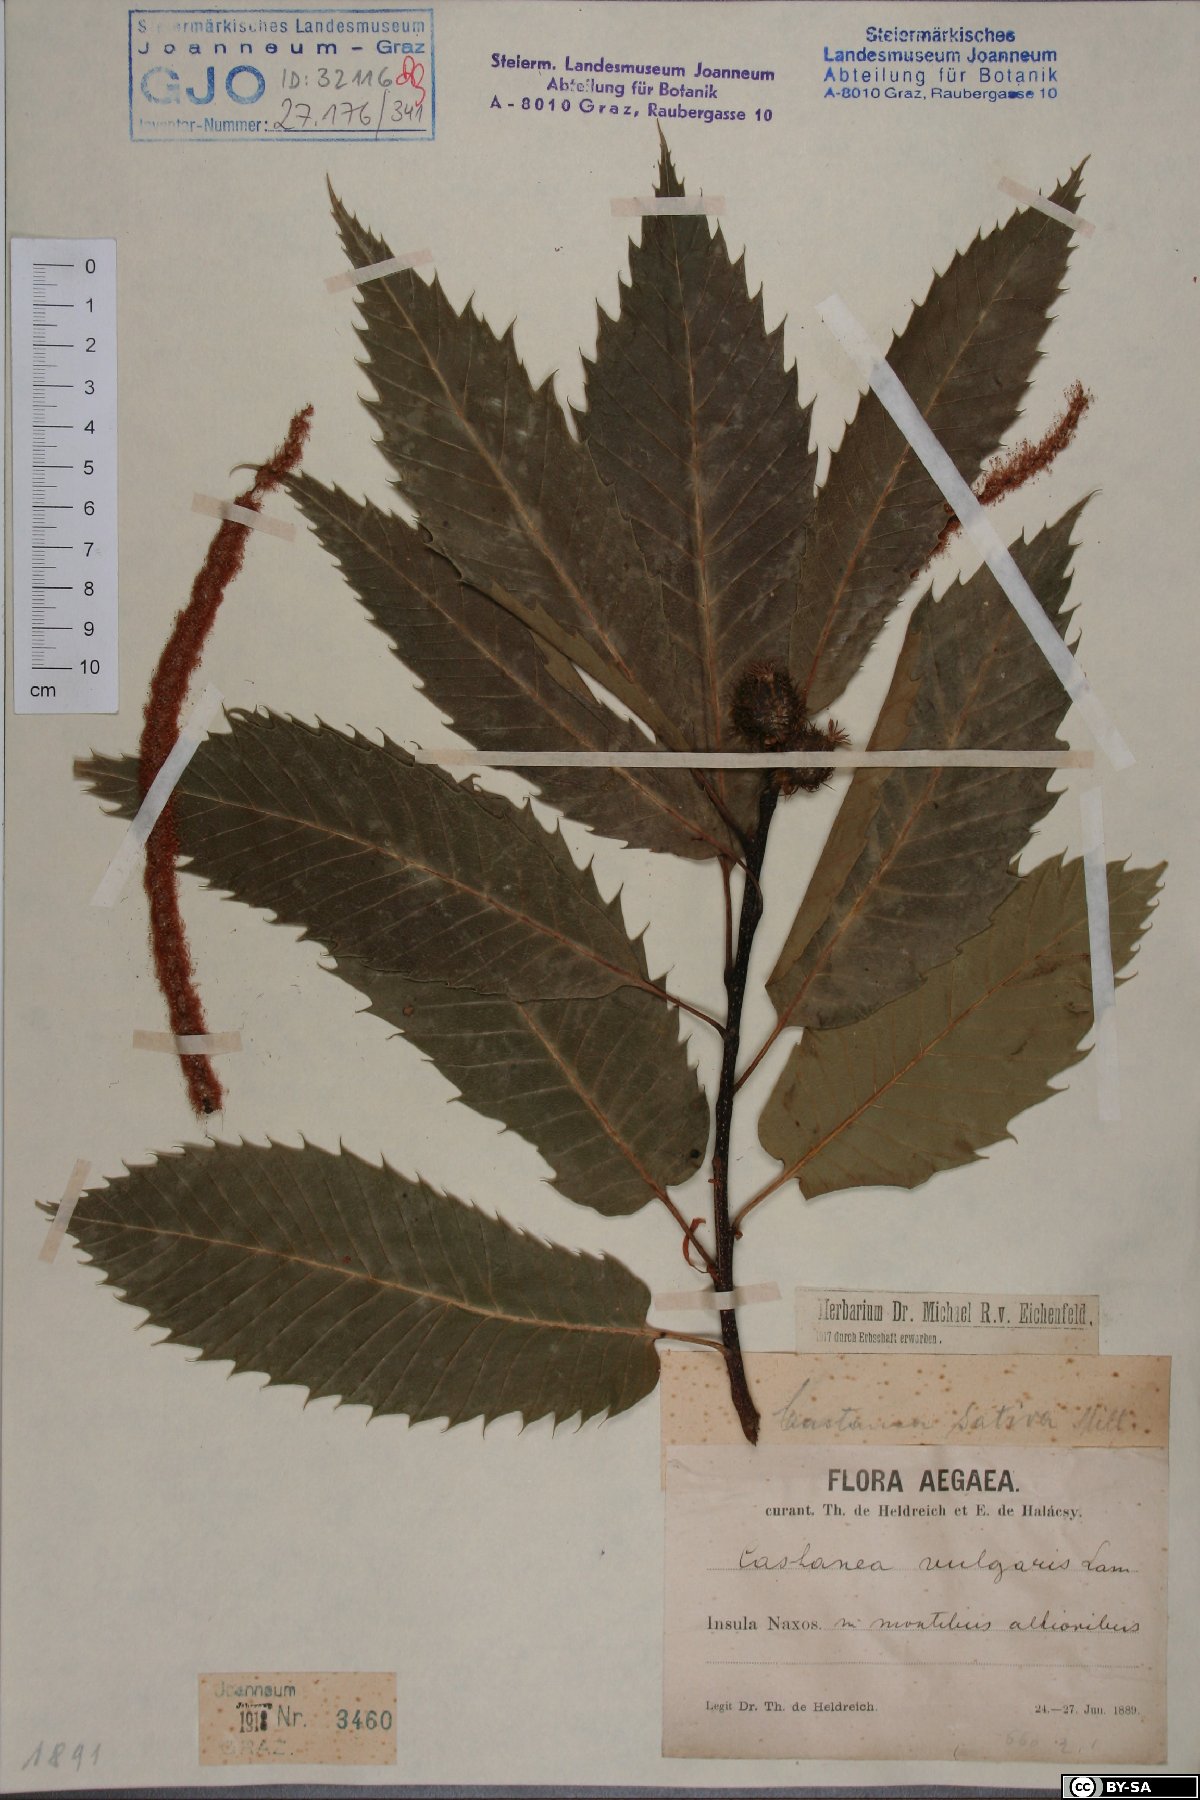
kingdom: Plantae
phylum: Tracheophyta
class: Magnoliopsida
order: Fagales
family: Fagaceae
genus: Castanea
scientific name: Castanea sativa
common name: Sweet chestnut
